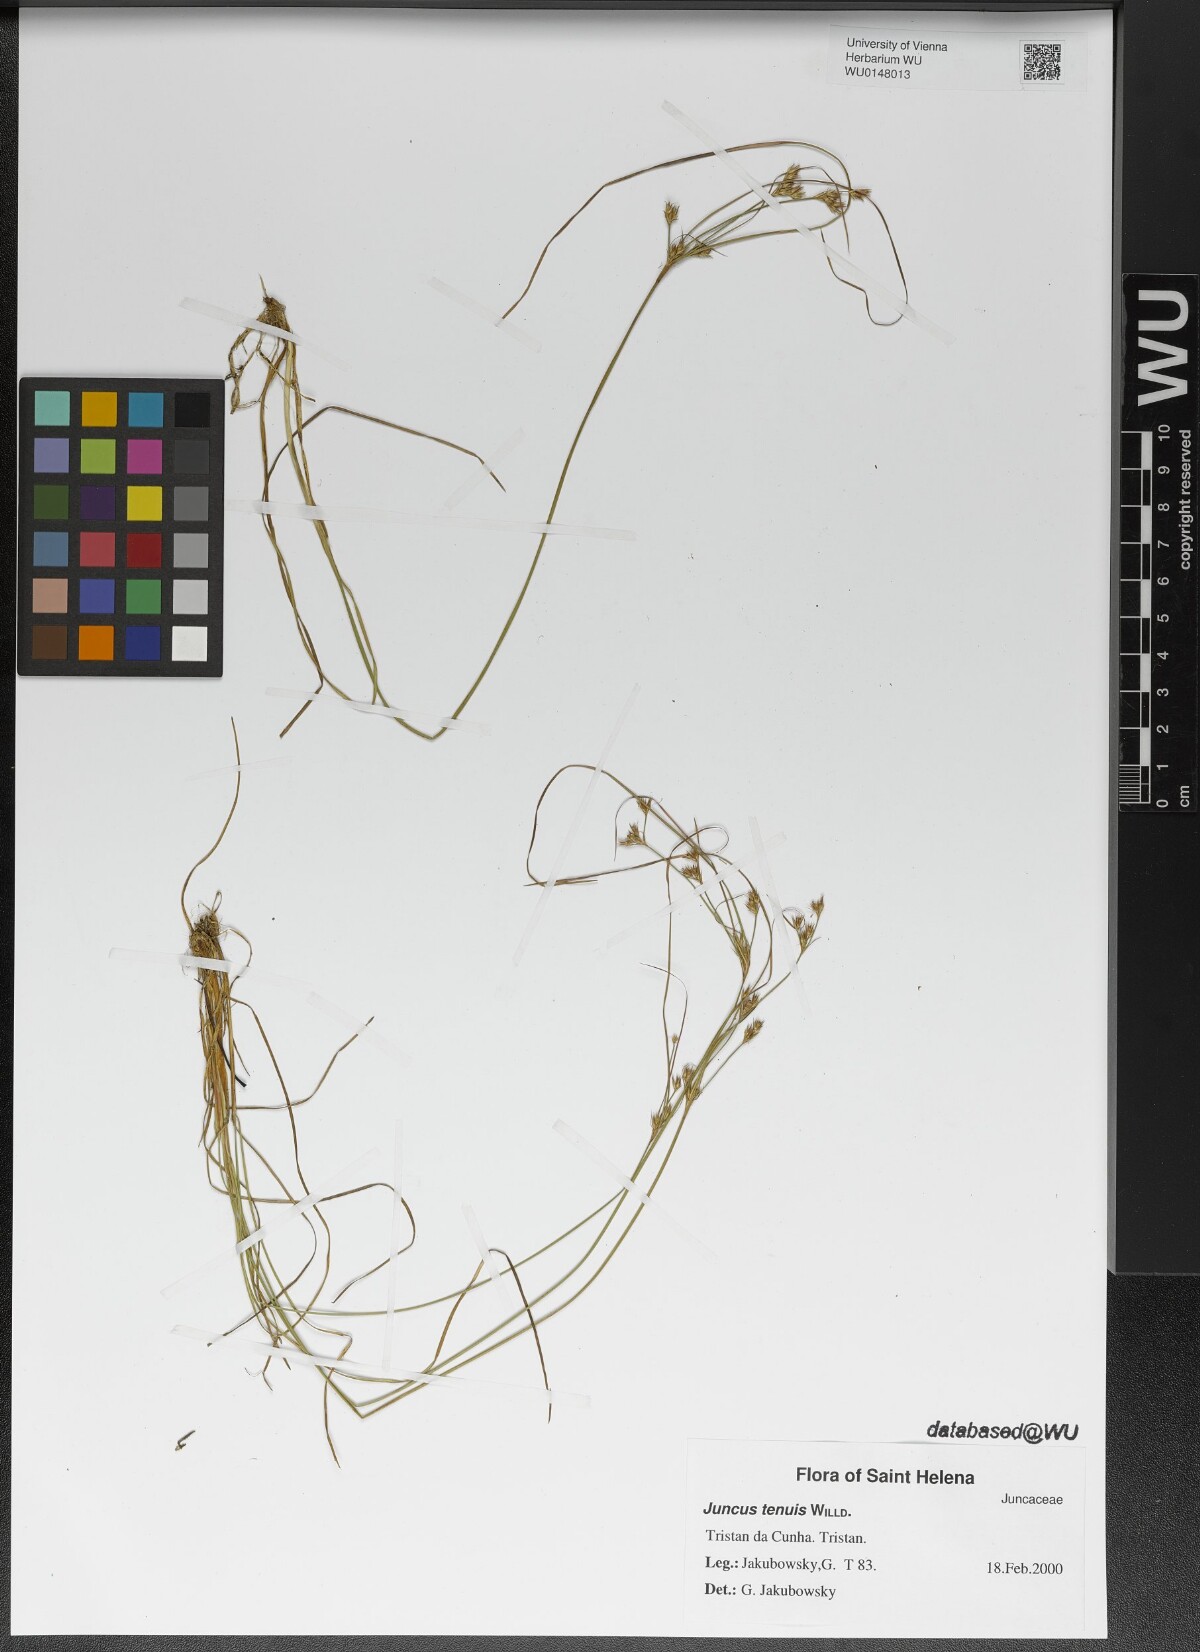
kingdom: Plantae
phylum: Tracheophyta
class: Liliopsida
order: Poales
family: Juncaceae
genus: Juncus
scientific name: Juncus tenuis
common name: Slender rush
